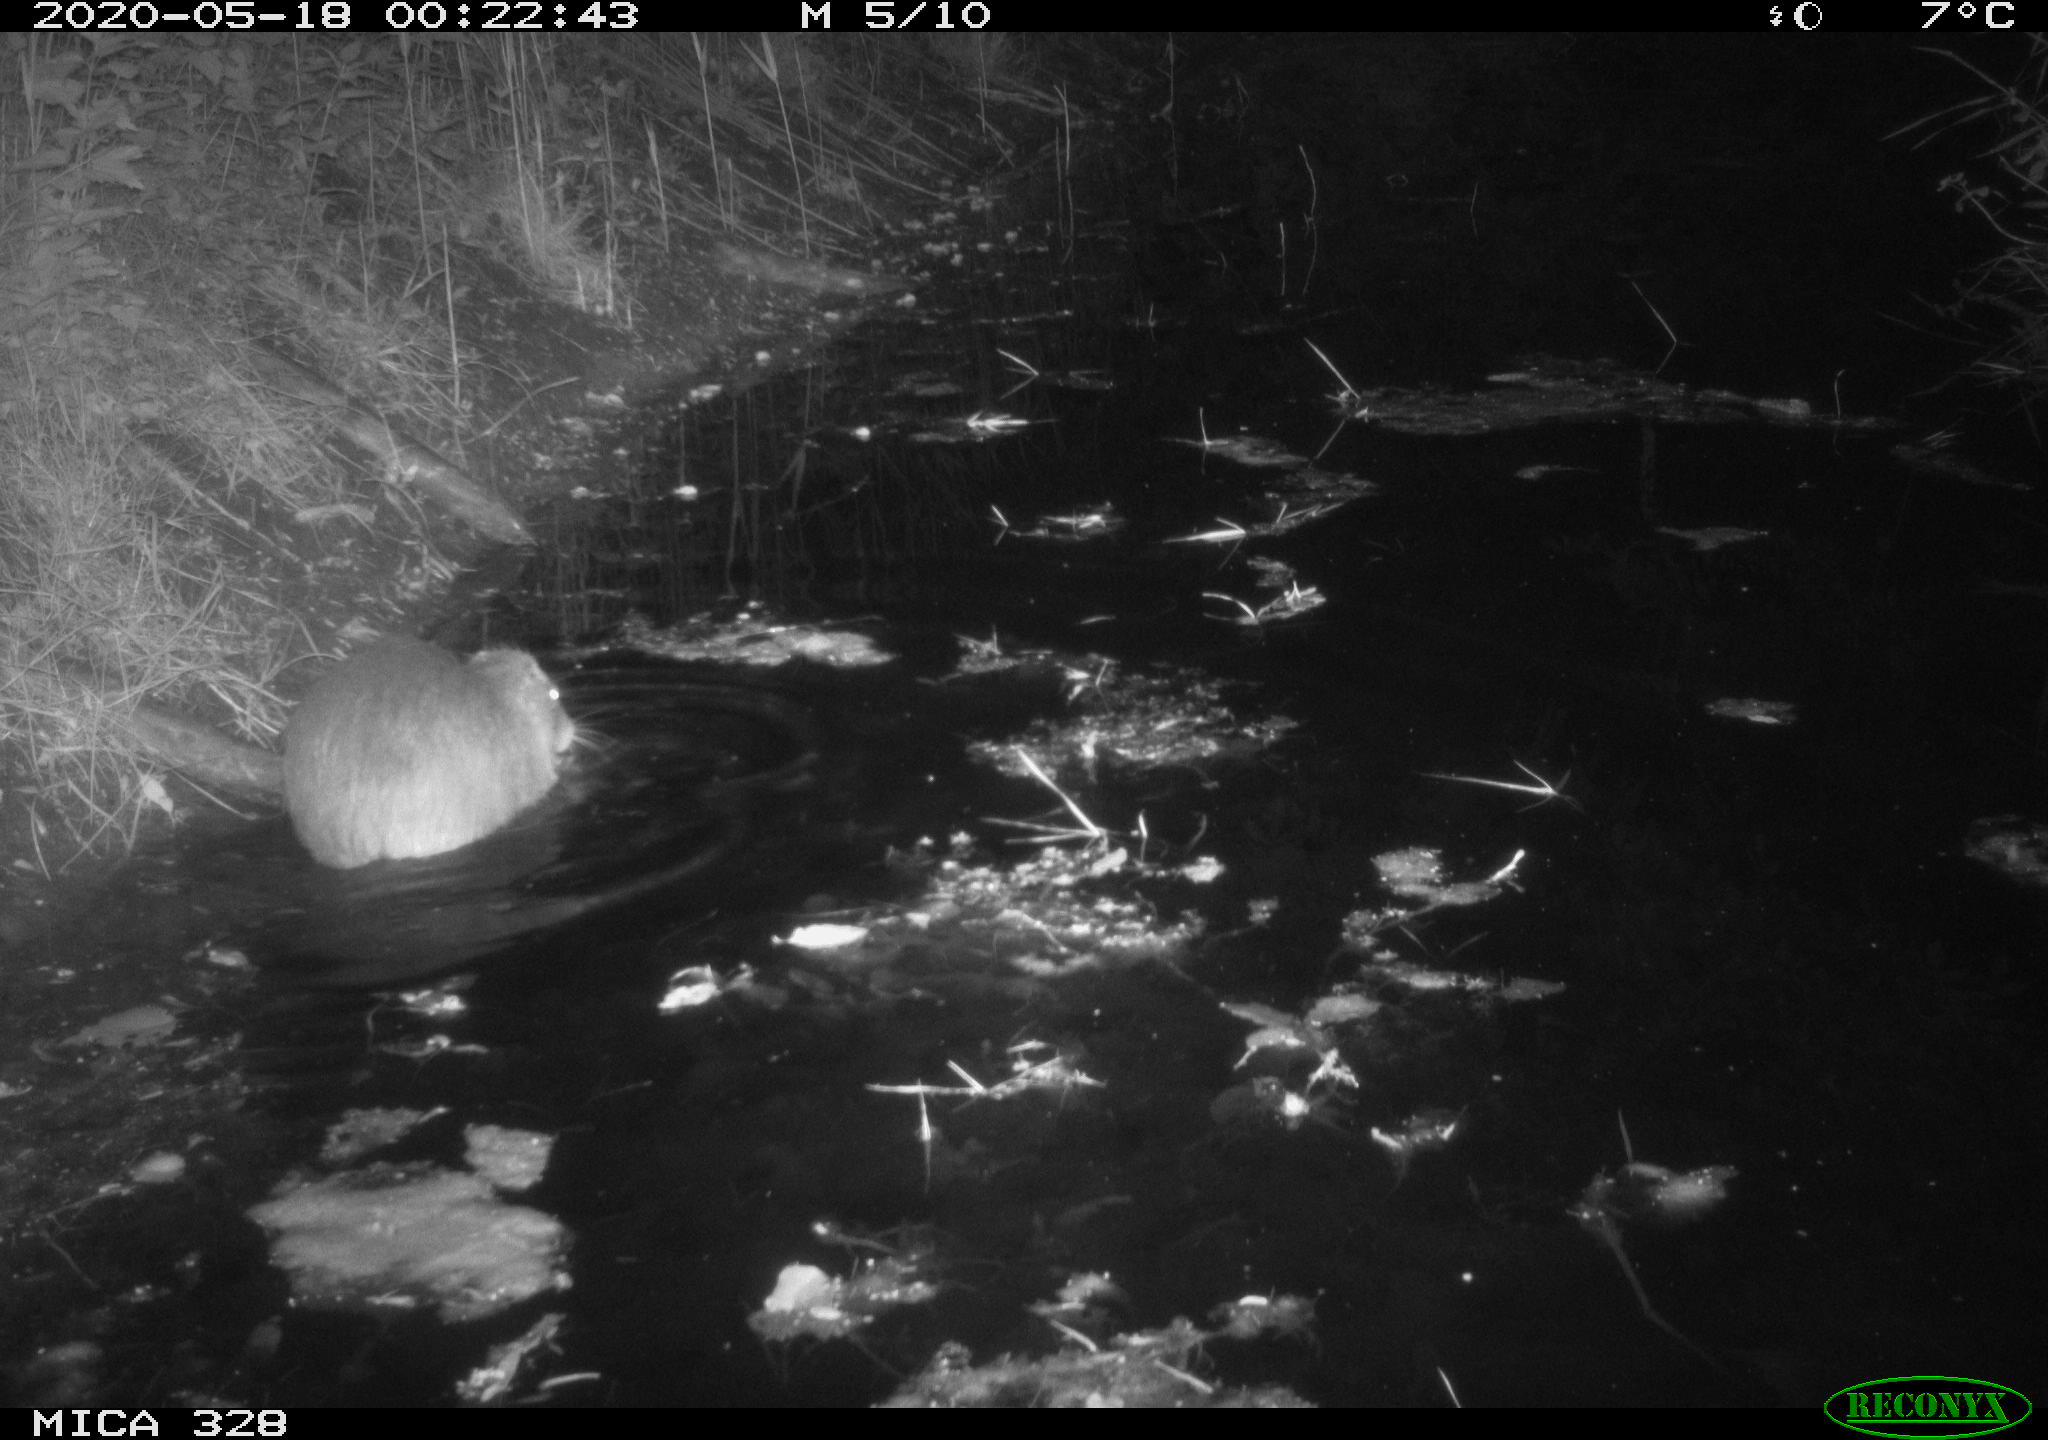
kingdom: Animalia
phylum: Chordata
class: Mammalia
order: Rodentia
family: Myocastoridae
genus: Myocastor
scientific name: Myocastor coypus
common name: Coypu
